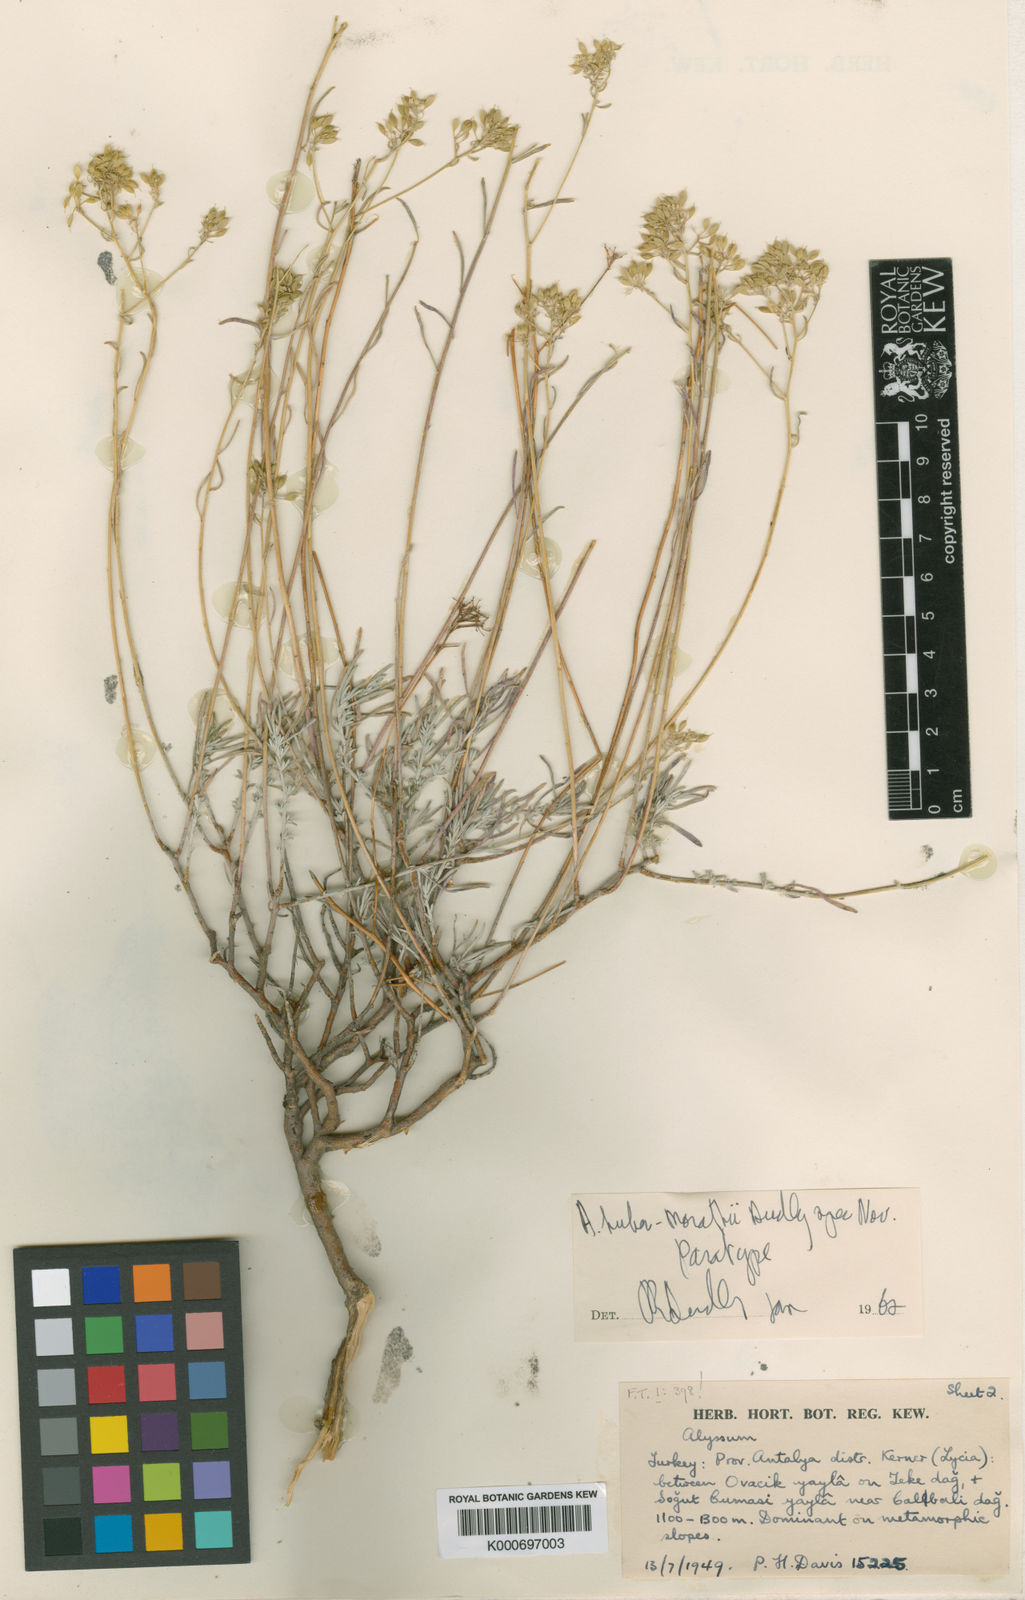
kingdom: Plantae
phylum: Tracheophyta
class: Magnoliopsida
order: Brassicales
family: Brassicaceae
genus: Odontarrhena
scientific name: Odontarrhena huber-morathii
